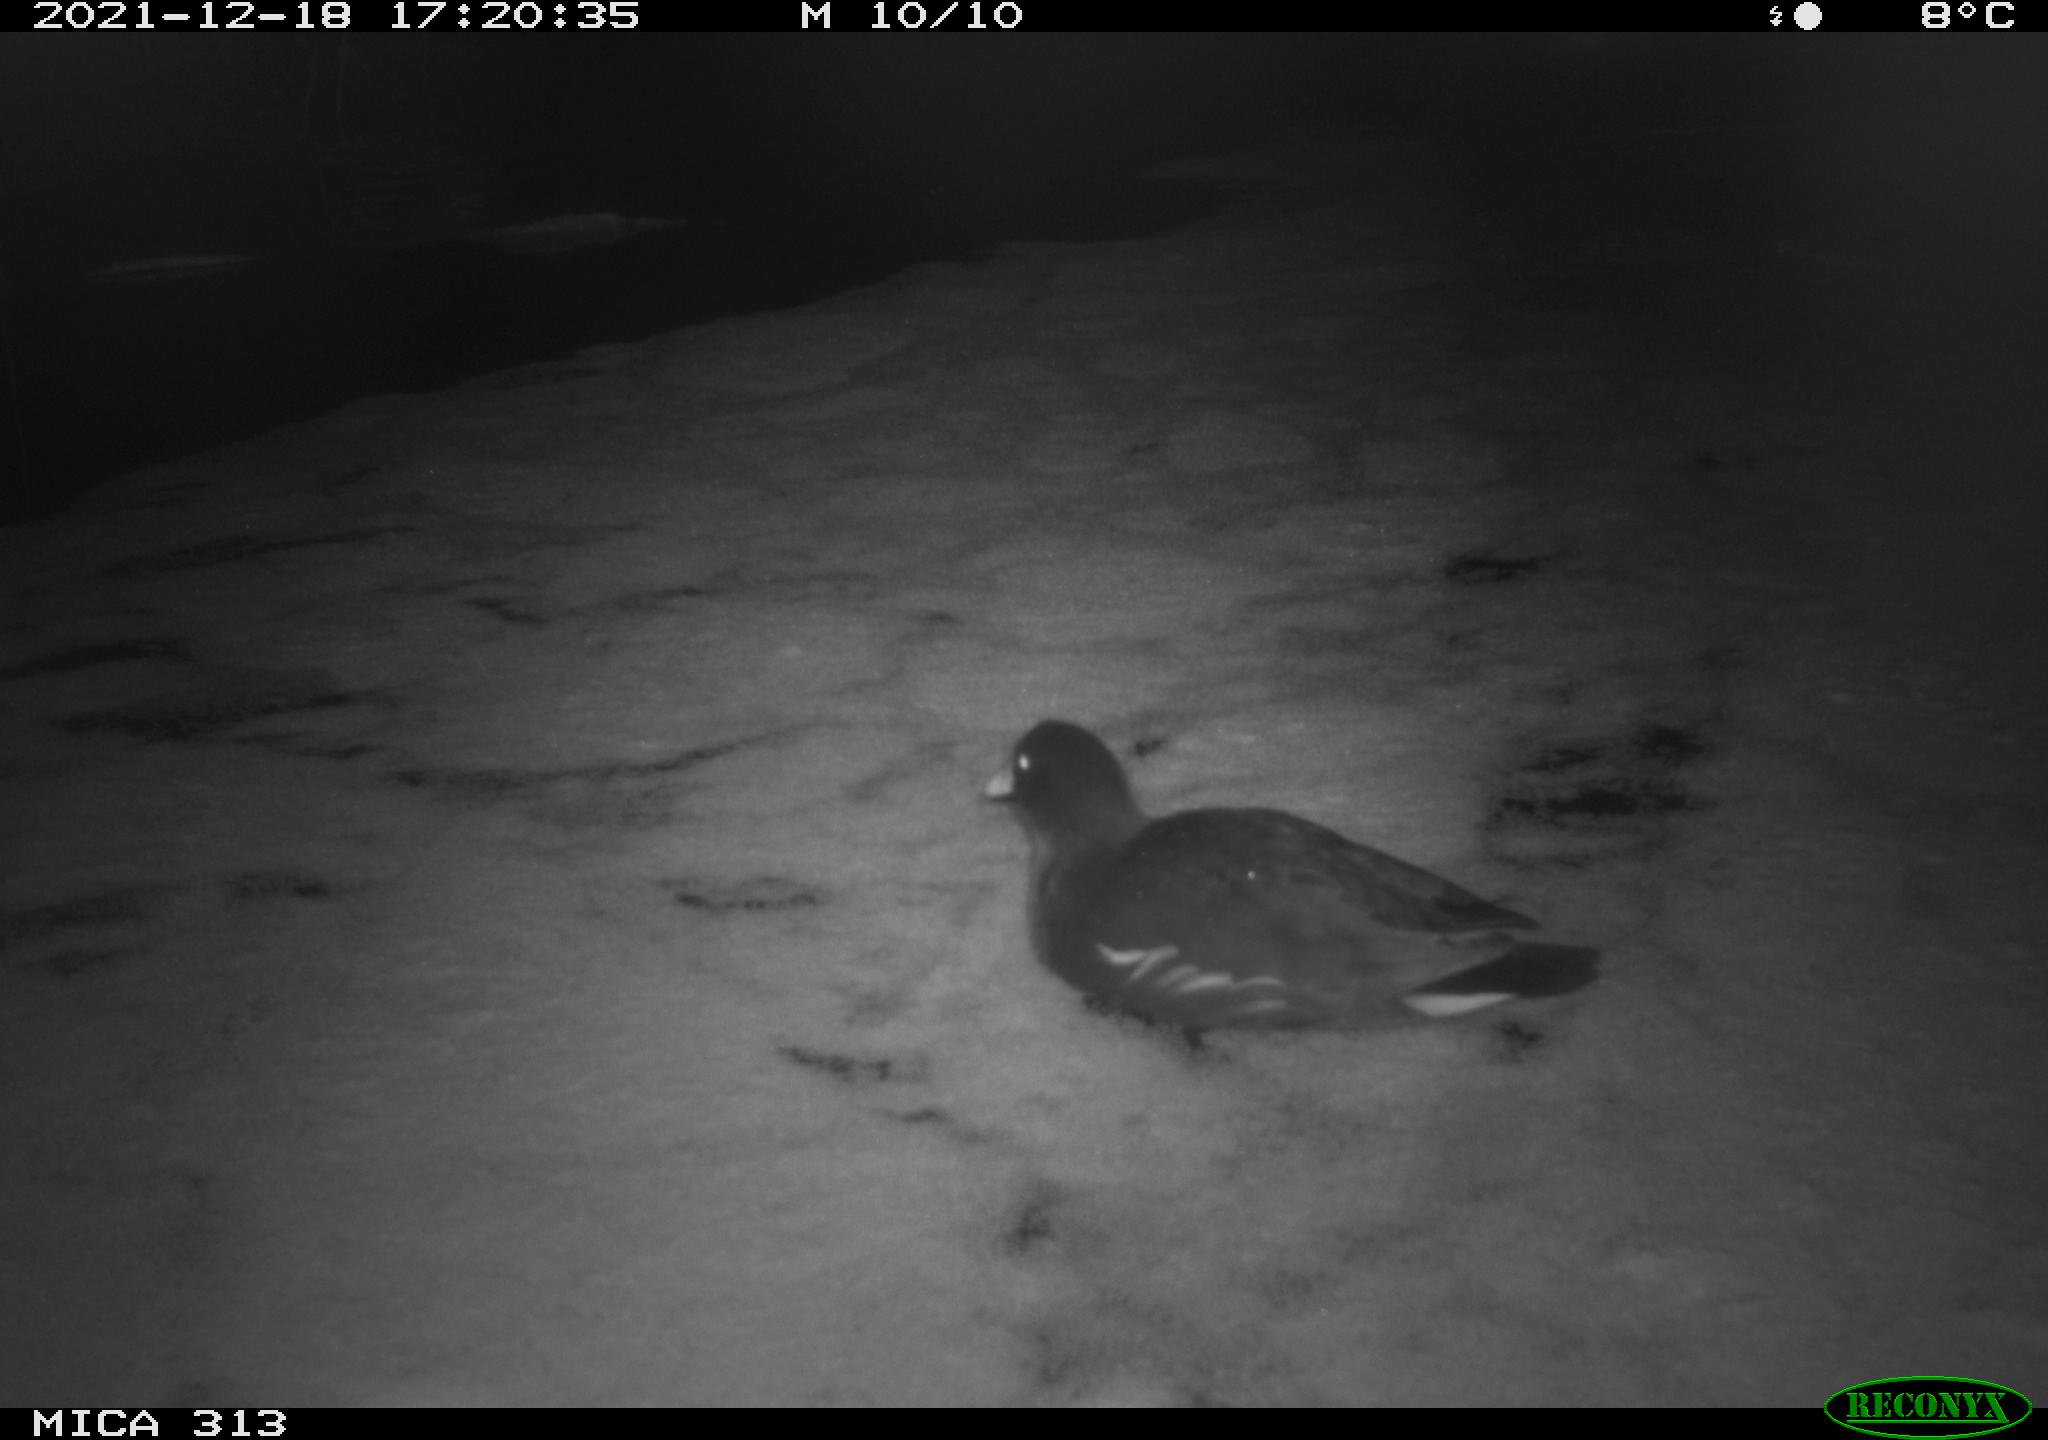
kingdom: Animalia
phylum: Chordata
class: Aves
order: Gruiformes
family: Rallidae
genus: Gallinula
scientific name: Gallinula chloropus
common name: Common moorhen
